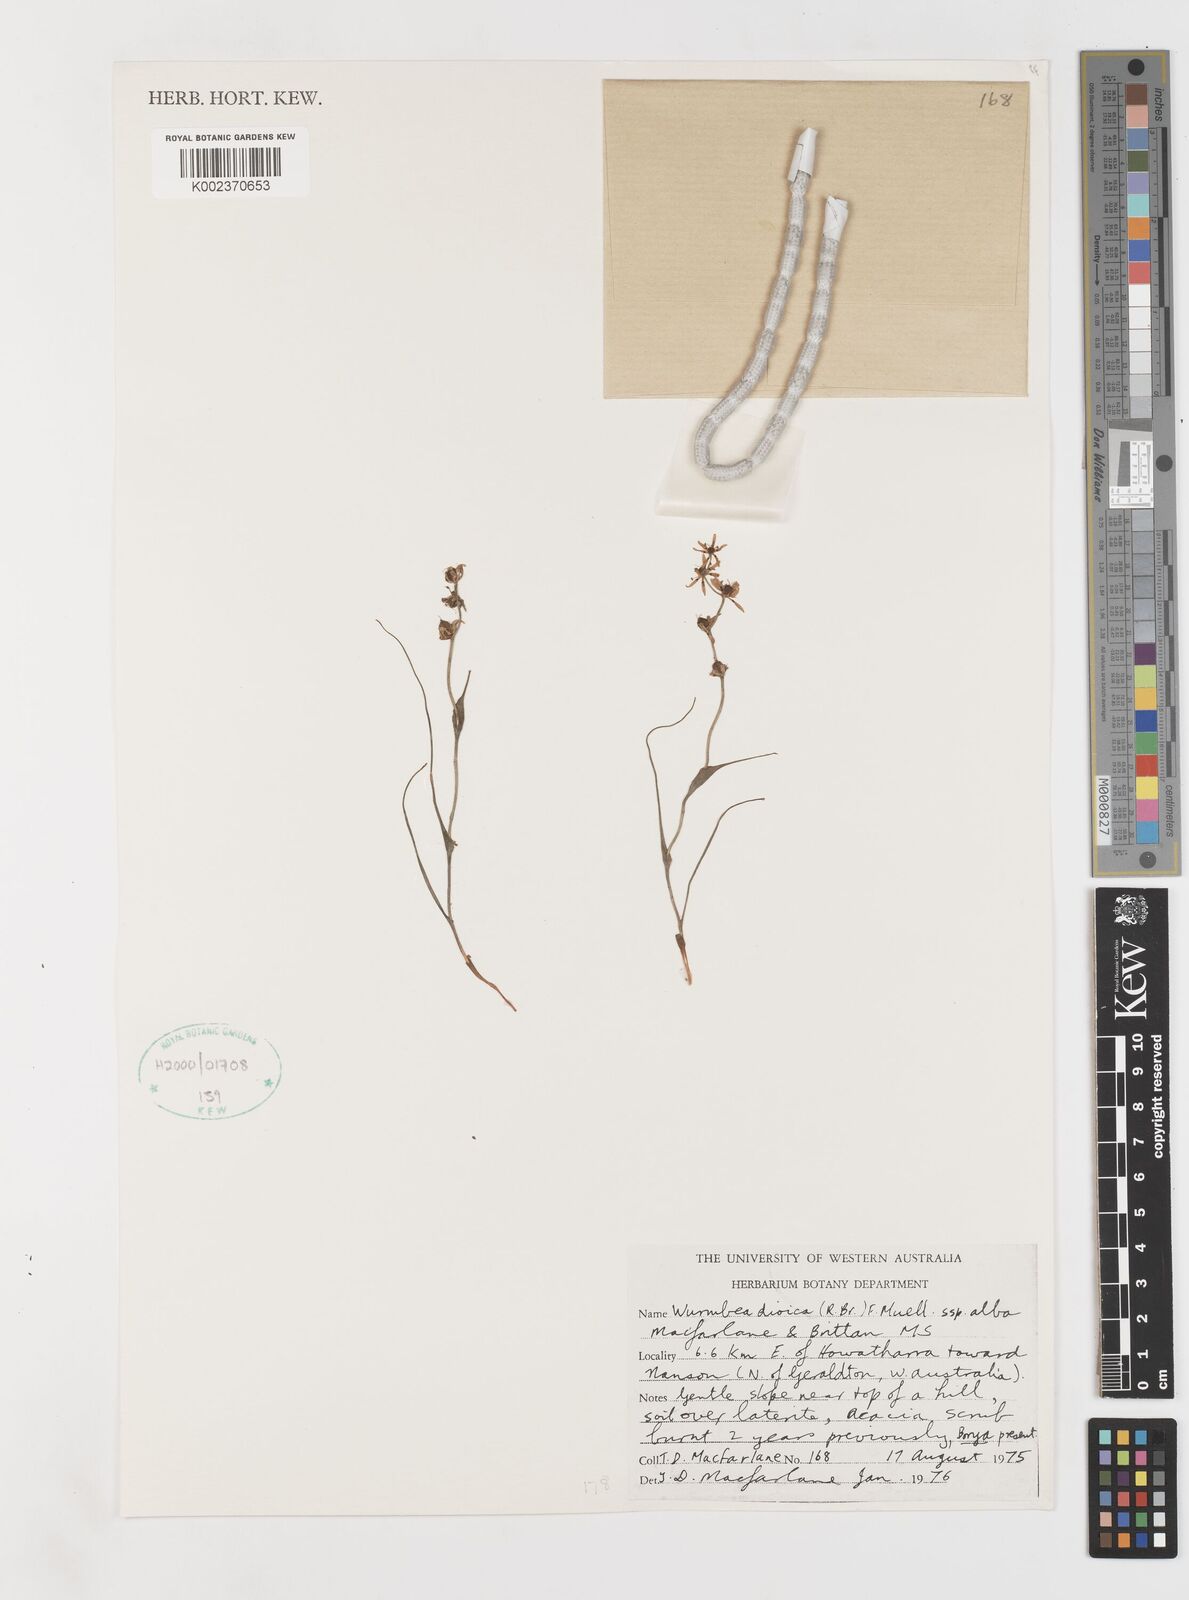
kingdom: Plantae
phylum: Tracheophyta
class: Liliopsida
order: Liliales
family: Colchicaceae
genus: Wurmbea
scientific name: Wurmbea dioica
